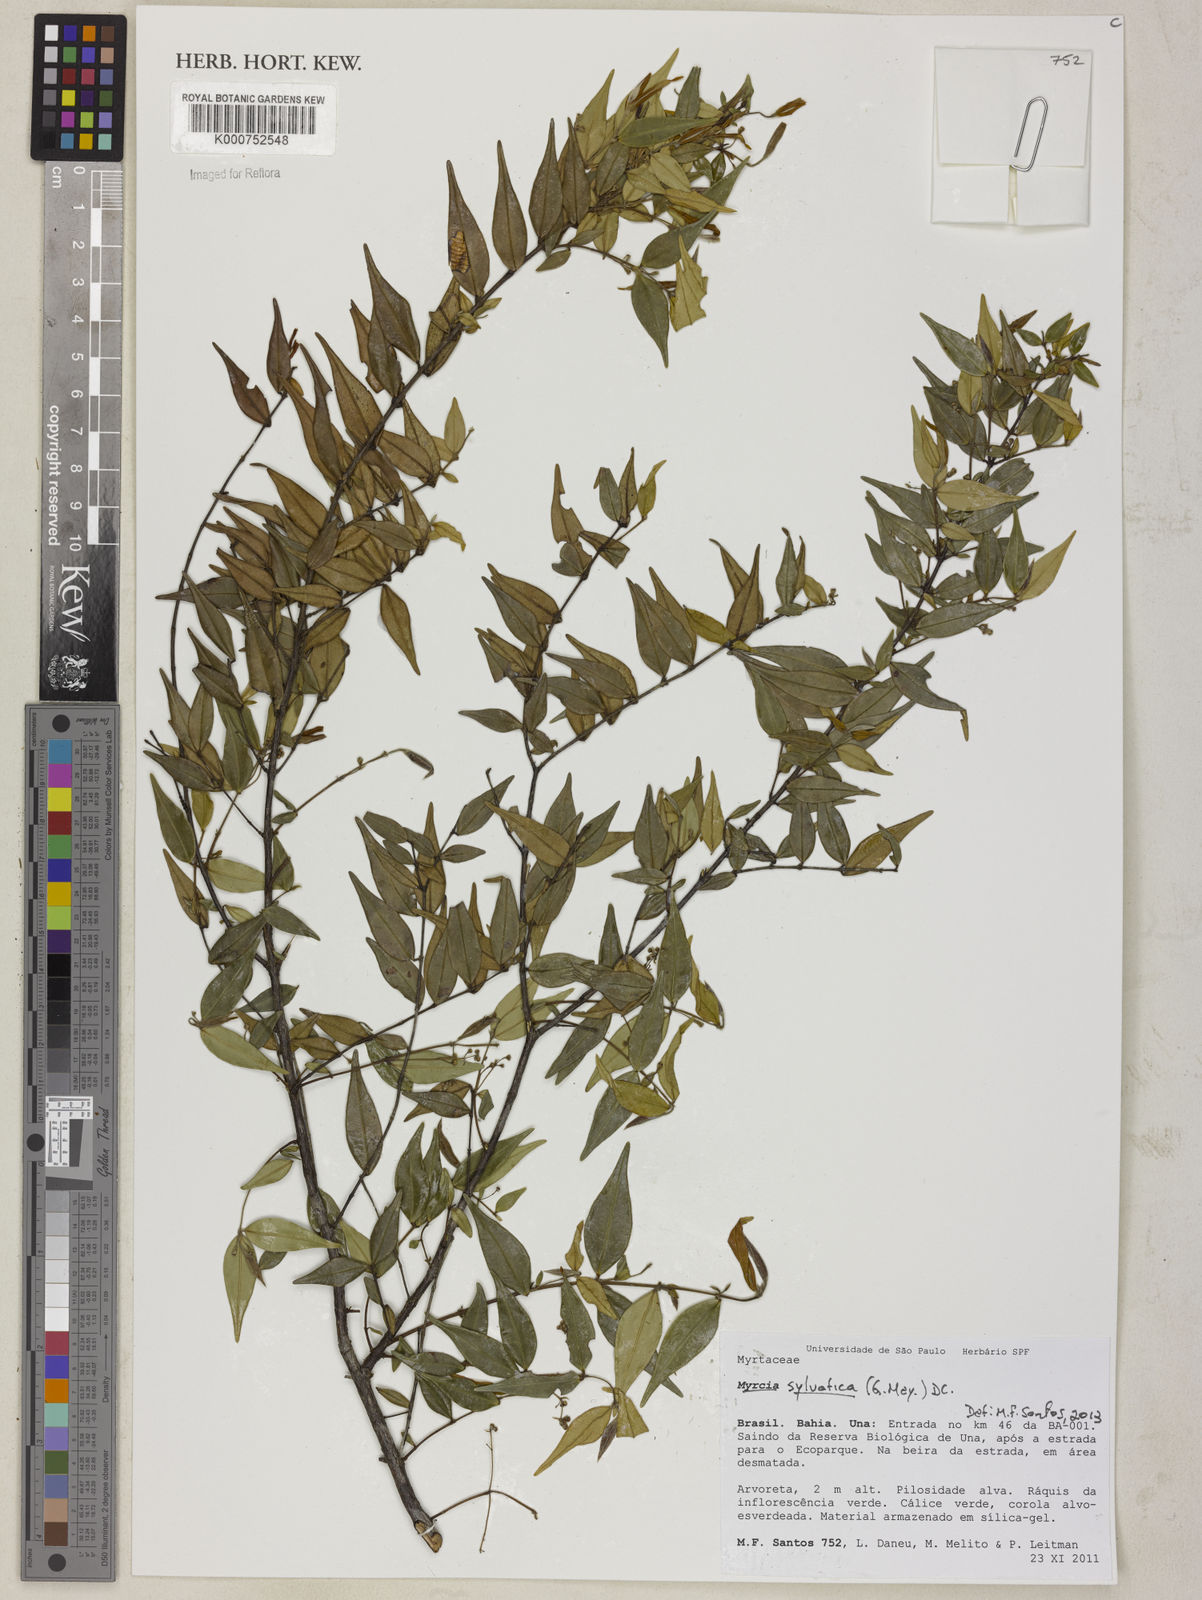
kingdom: Plantae
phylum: Tracheophyta
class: Magnoliopsida
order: Myrtales
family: Myrtaceae
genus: Myrcia
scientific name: Myrcia sylvatica
